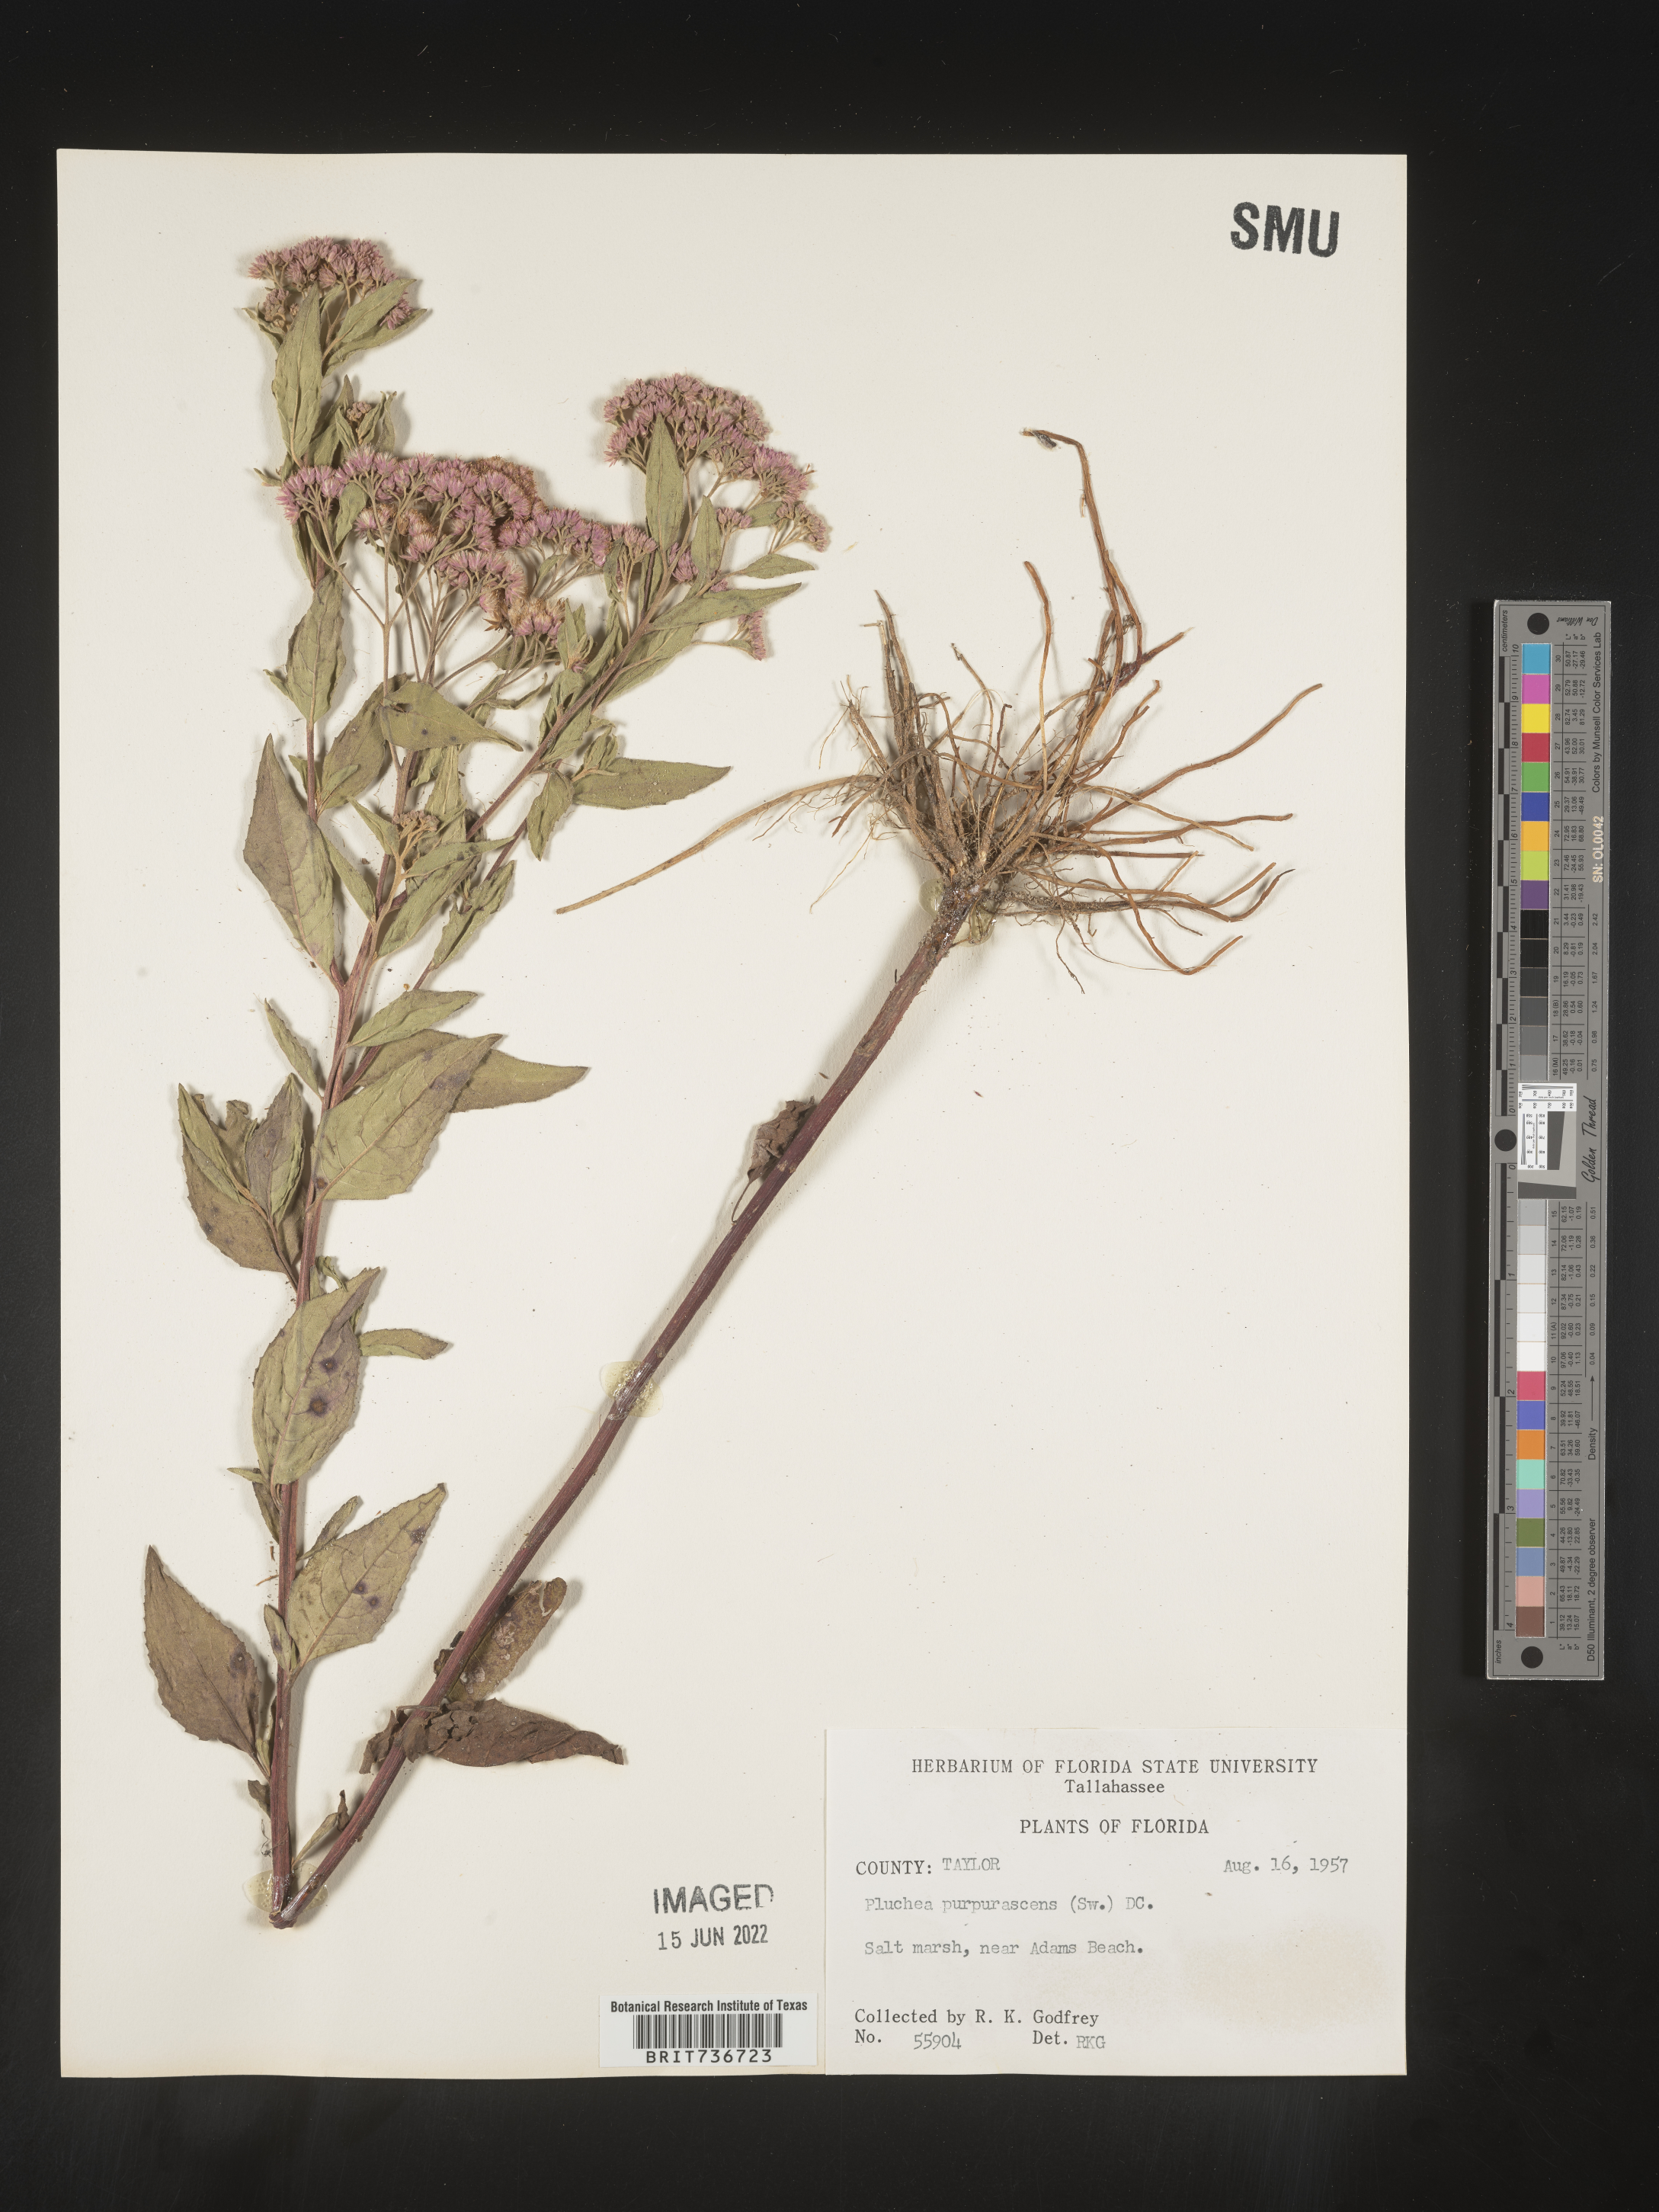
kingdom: Plantae
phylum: Tracheophyta
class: Magnoliopsida
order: Asterales
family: Asteraceae
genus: Pluchea
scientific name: Pluchea odorata
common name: Saltmarsh fleabane
